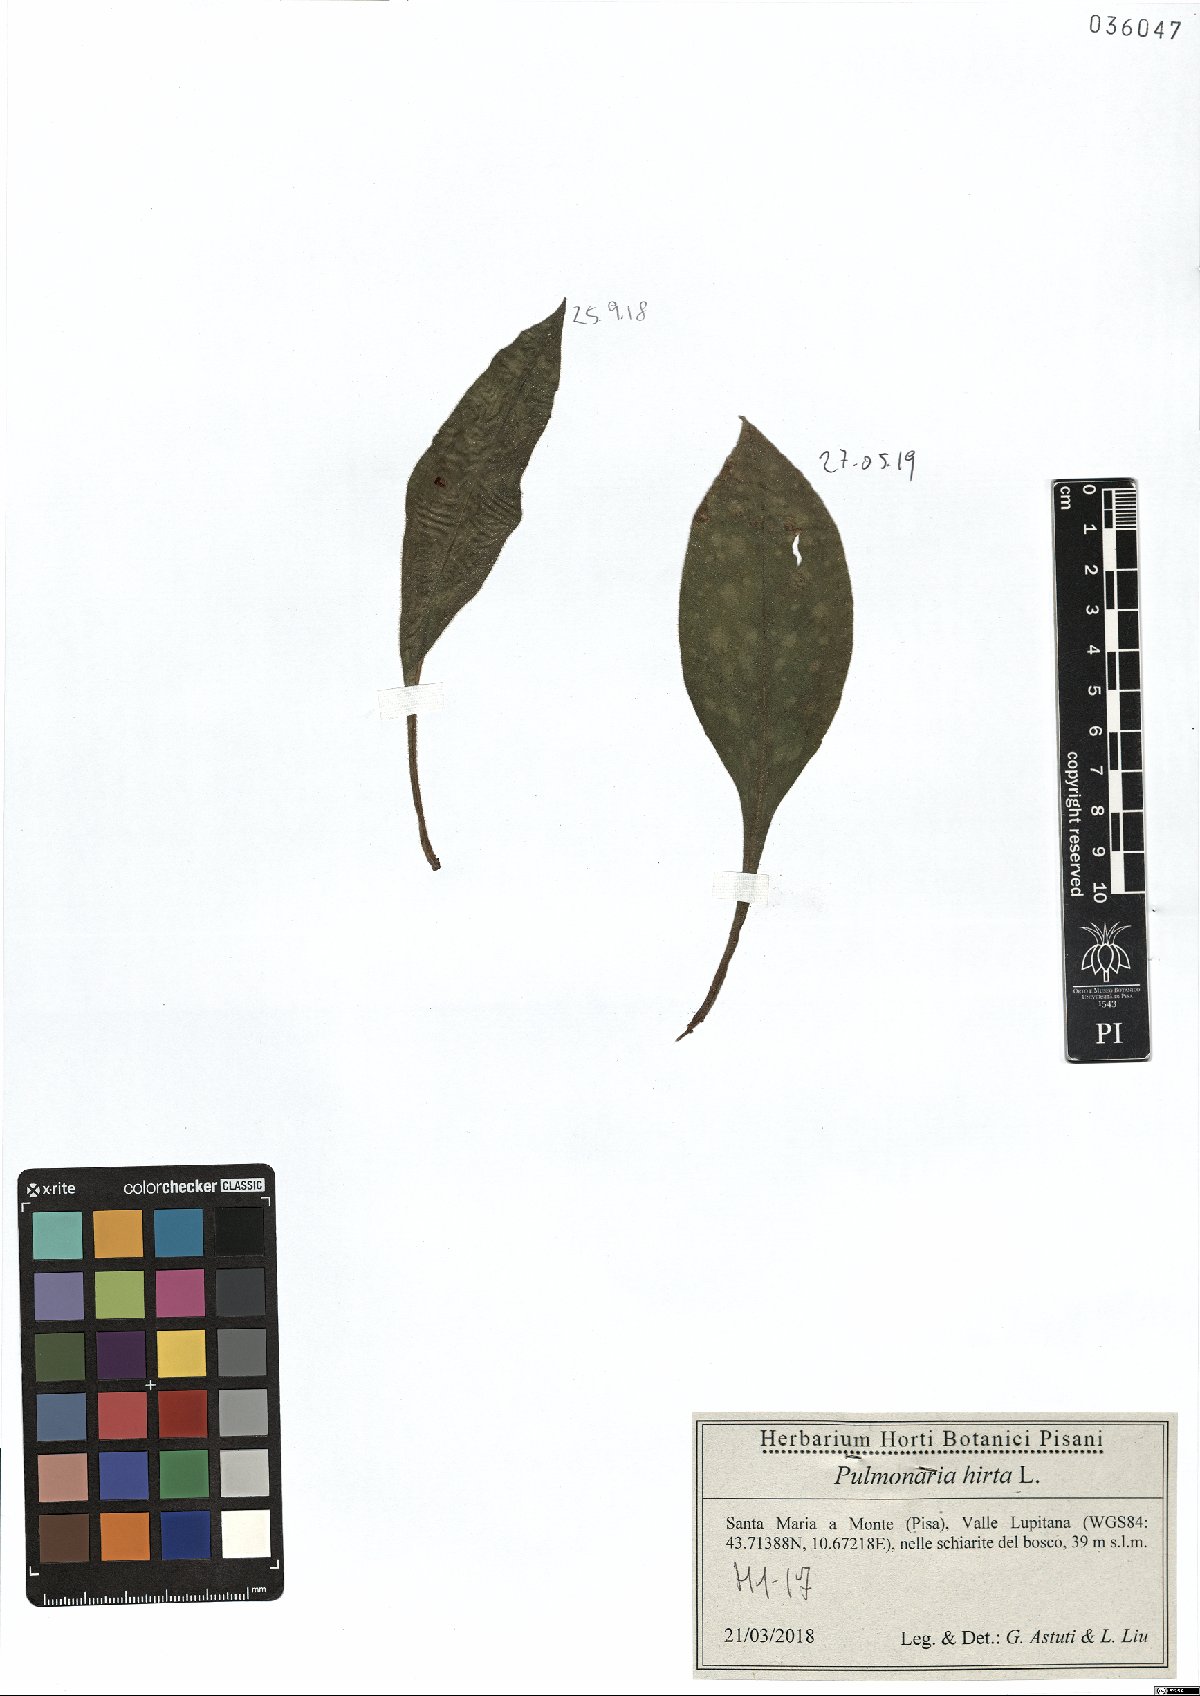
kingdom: Plantae
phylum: Tracheophyta
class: Magnoliopsida
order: Boraginales
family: Boraginaceae
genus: Pulmonaria
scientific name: Pulmonaria hirta
